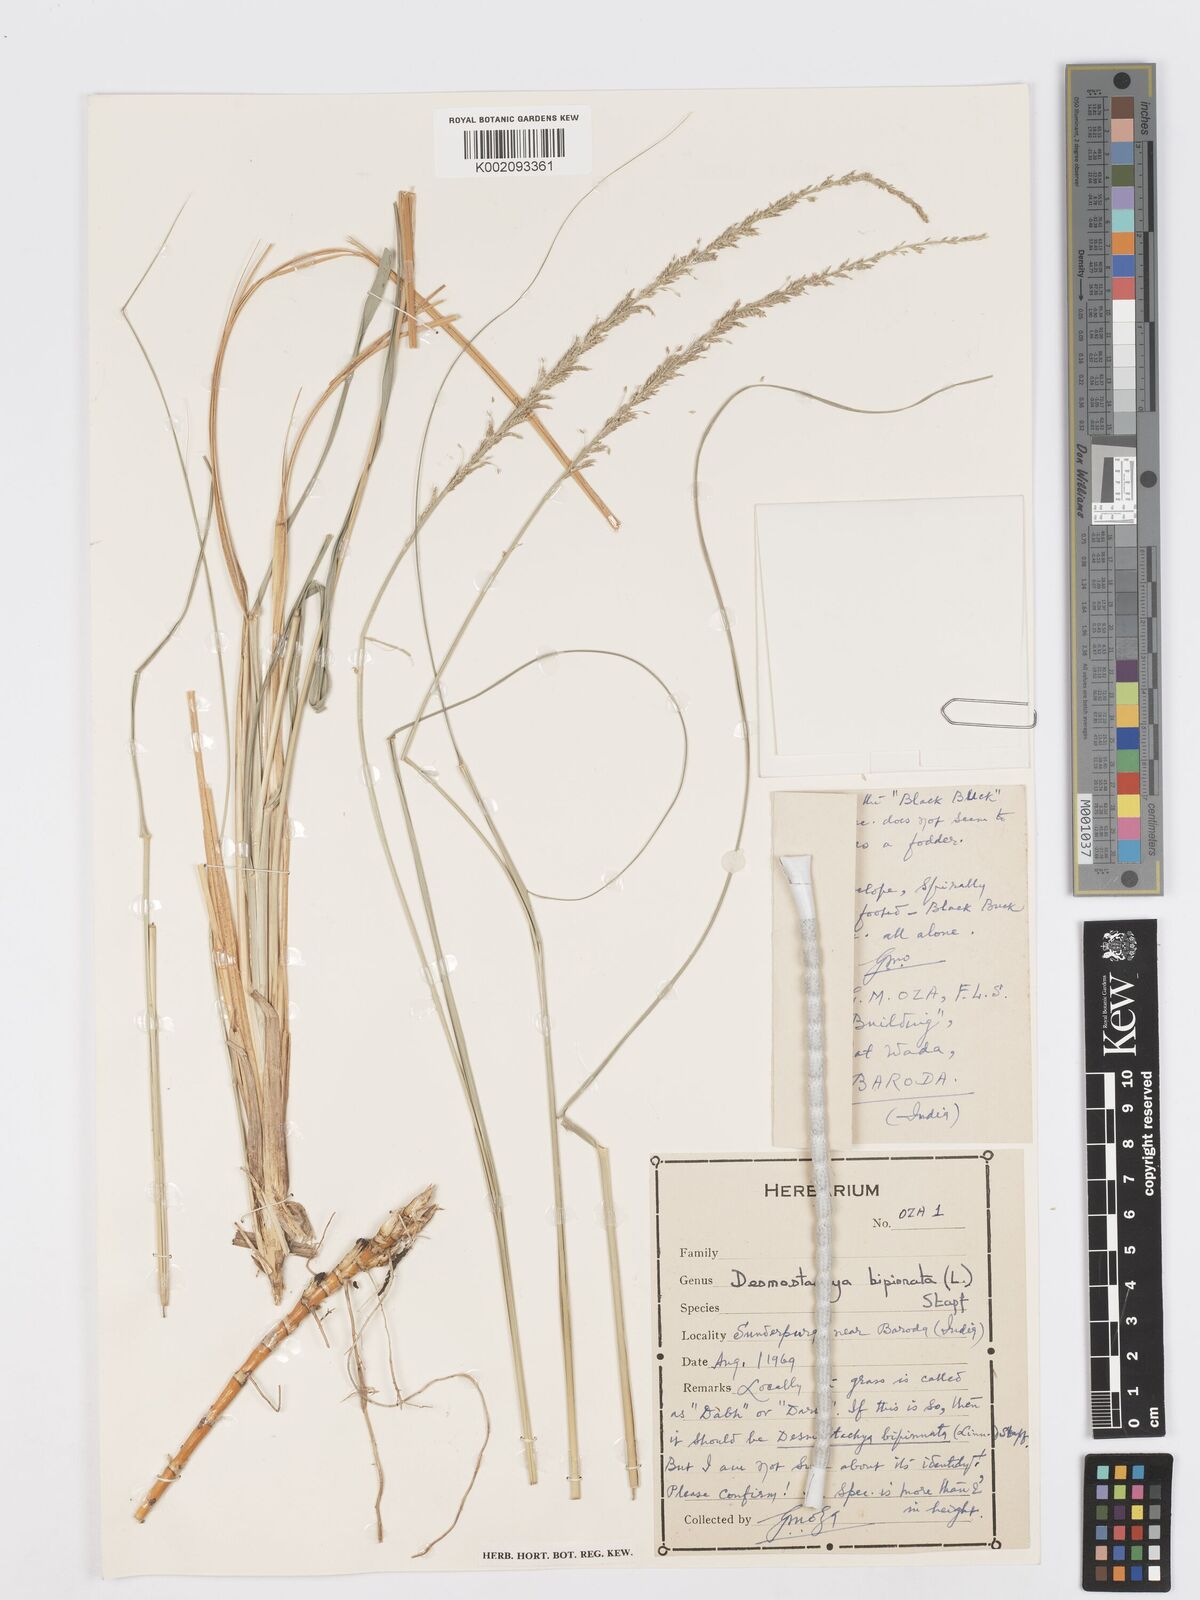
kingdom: Plantae
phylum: Tracheophyta
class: Liliopsida
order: Poales
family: Poaceae
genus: Desmostachya
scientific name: Desmostachya bipinnata
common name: Crowfoot grass
